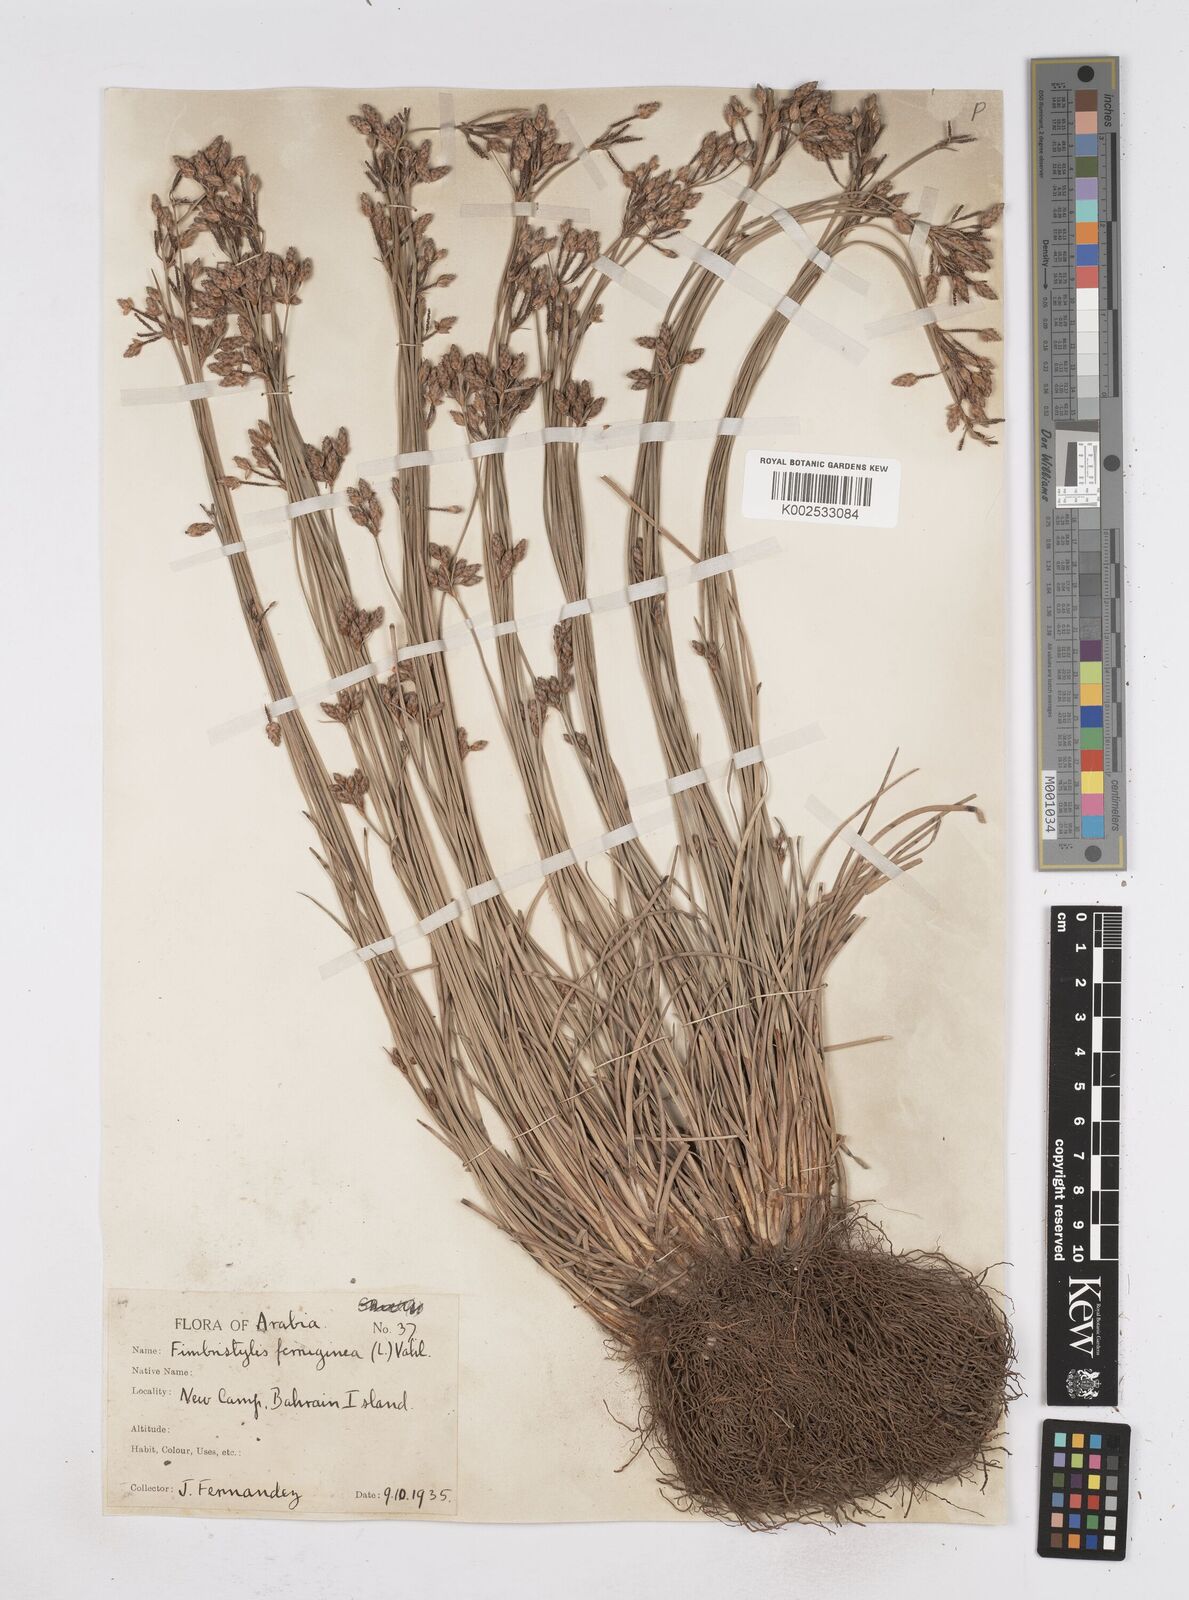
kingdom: Plantae
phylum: Tracheophyta
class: Liliopsida
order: Poales
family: Cyperaceae
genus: Fimbristylis
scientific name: Fimbristylis ferruginea
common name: West indian fimbry
